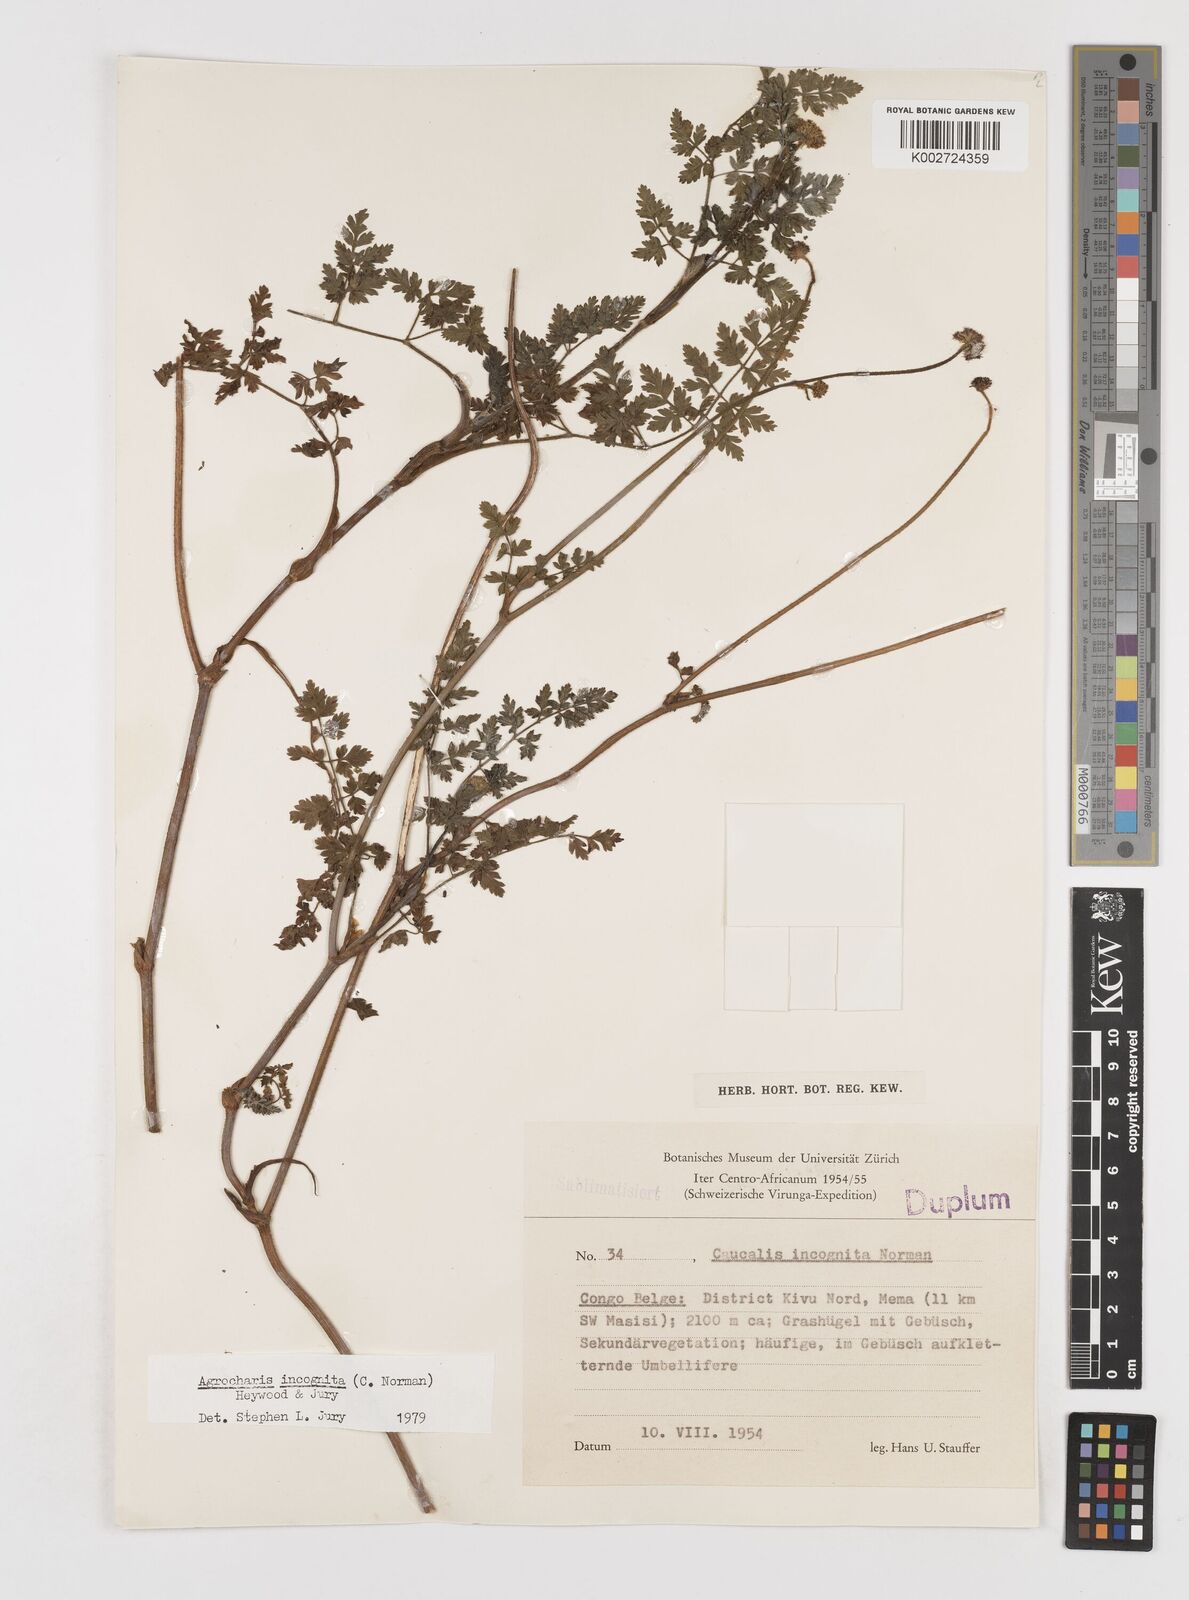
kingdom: Plantae
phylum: Tracheophyta
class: Magnoliopsida
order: Apiales
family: Apiaceae
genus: Daucus
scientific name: Daucus incognitus
